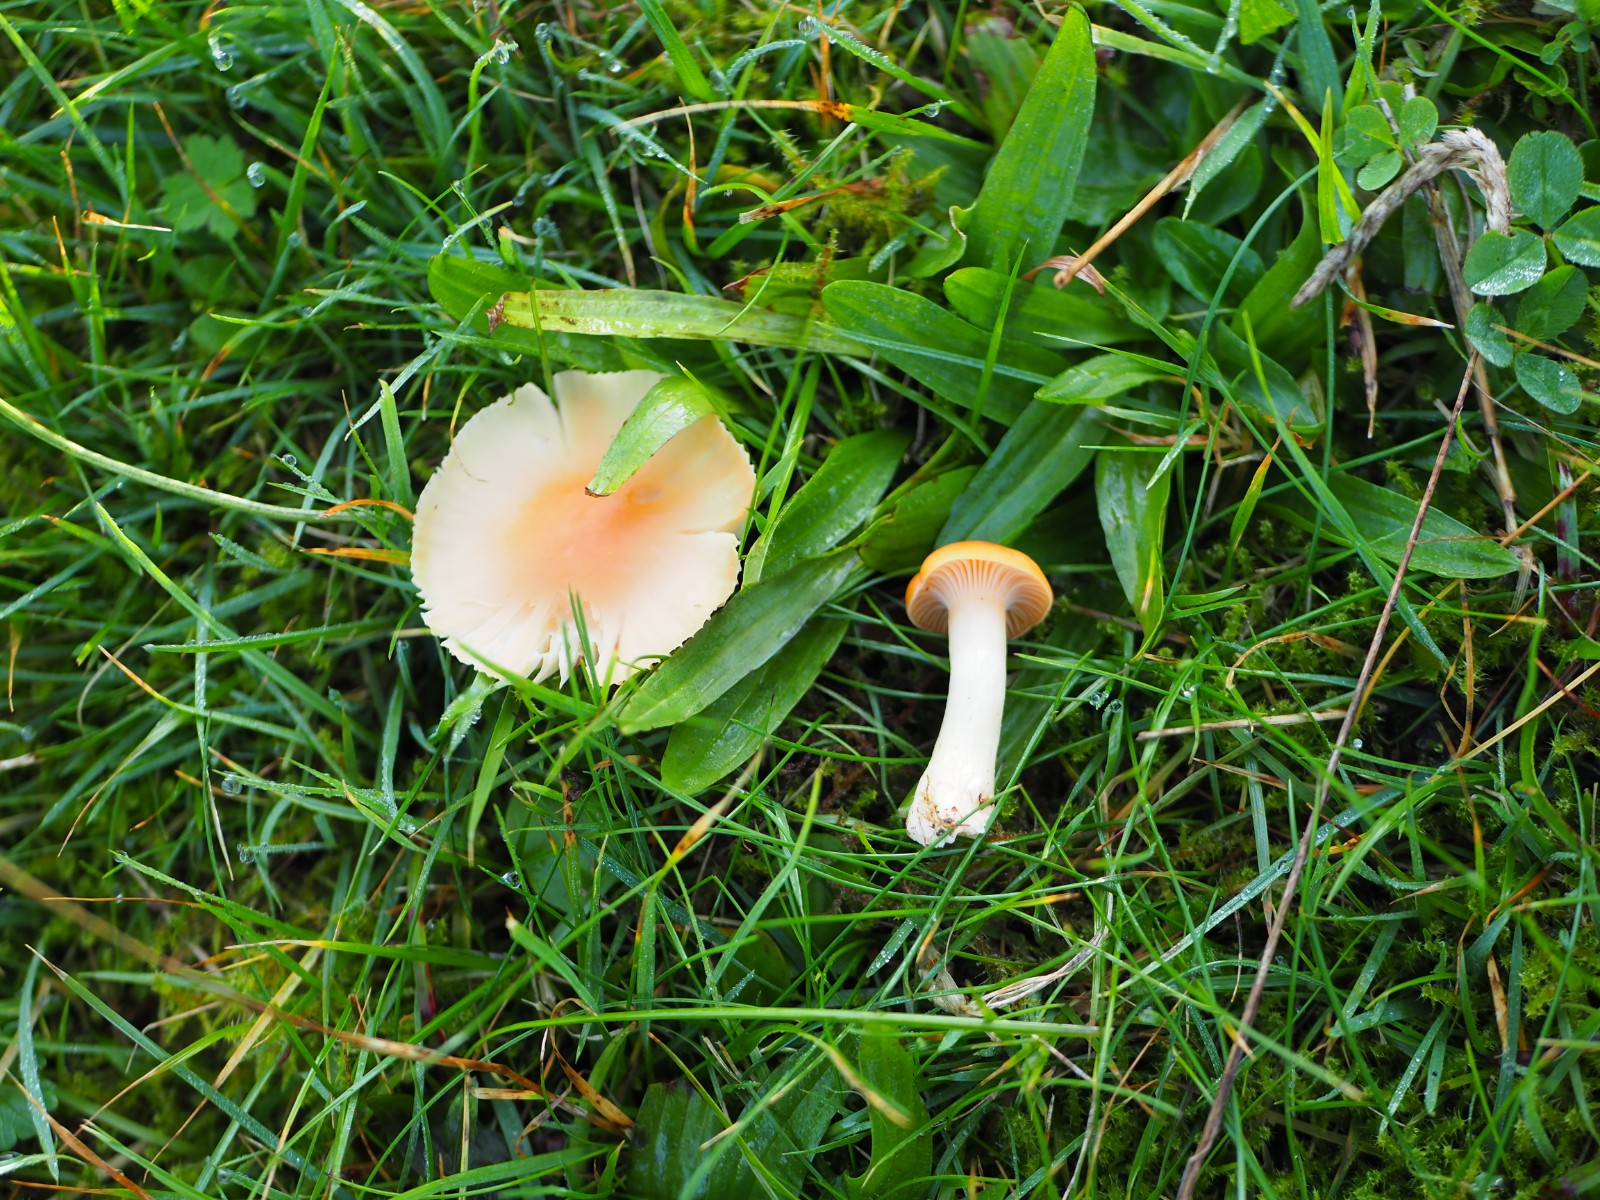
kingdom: Fungi
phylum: Basidiomycota
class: Agaricomycetes
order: Agaricales
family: Hygrophoraceae
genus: Cuphophyllus
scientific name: Cuphophyllus pratensis
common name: eng-vokshat
